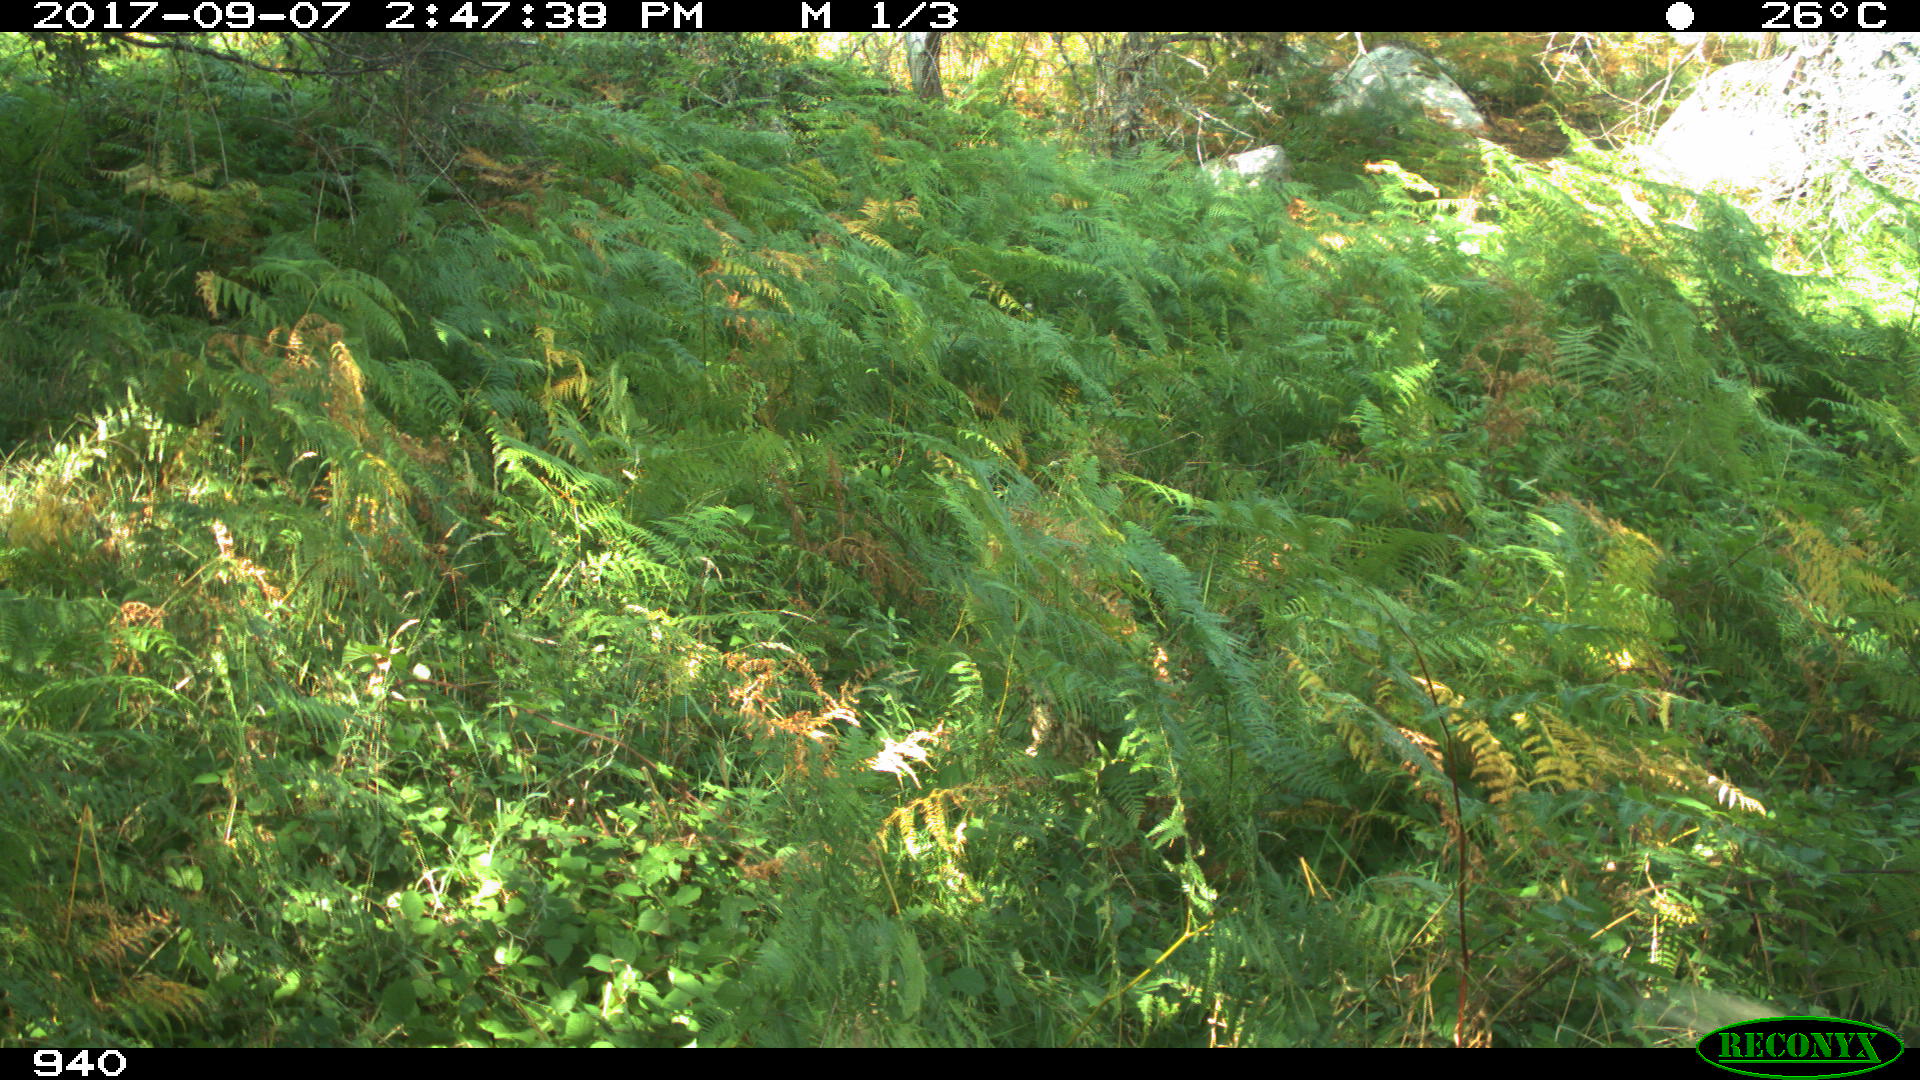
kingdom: Animalia
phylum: Chordata
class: Mammalia
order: Artiodactyla
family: Bovidae
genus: Bos
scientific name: Bos taurus
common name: Domesticated cattle
